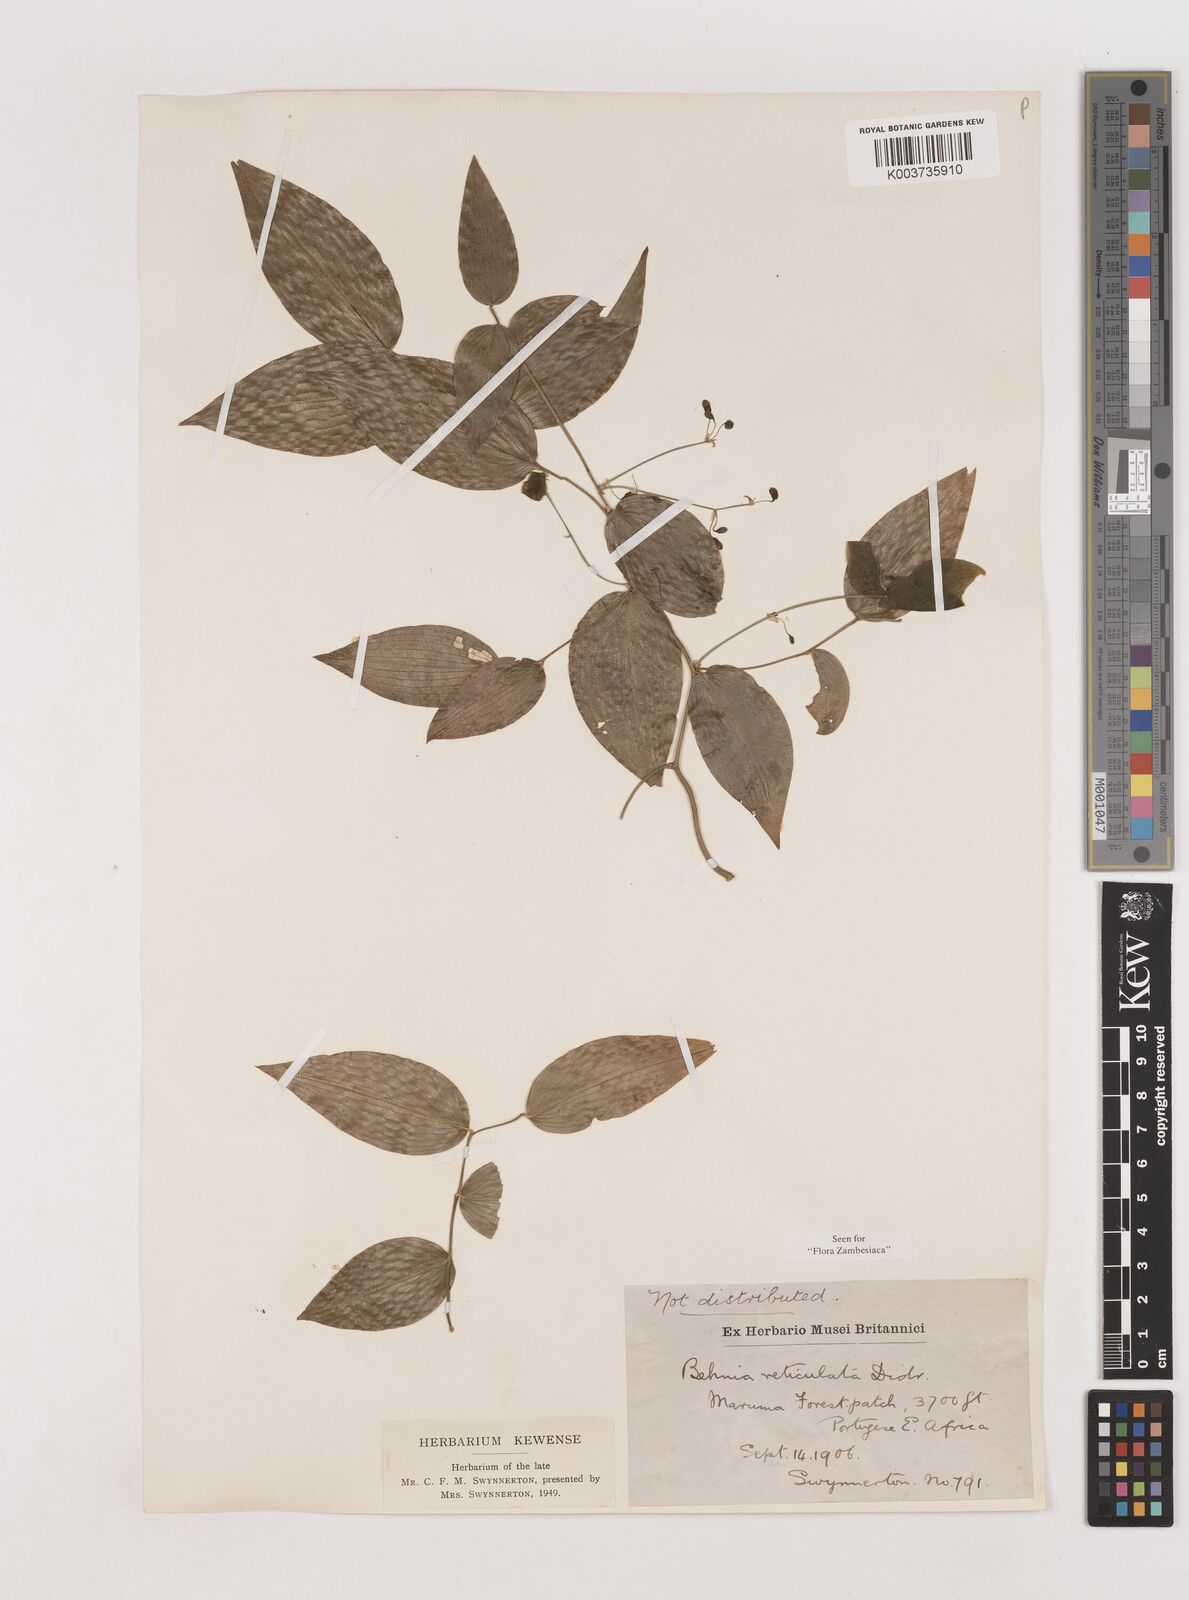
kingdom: Plantae
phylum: Tracheophyta
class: Liliopsida
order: Asparagales
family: Asparagaceae
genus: Behnia
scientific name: Behnia reticulata
